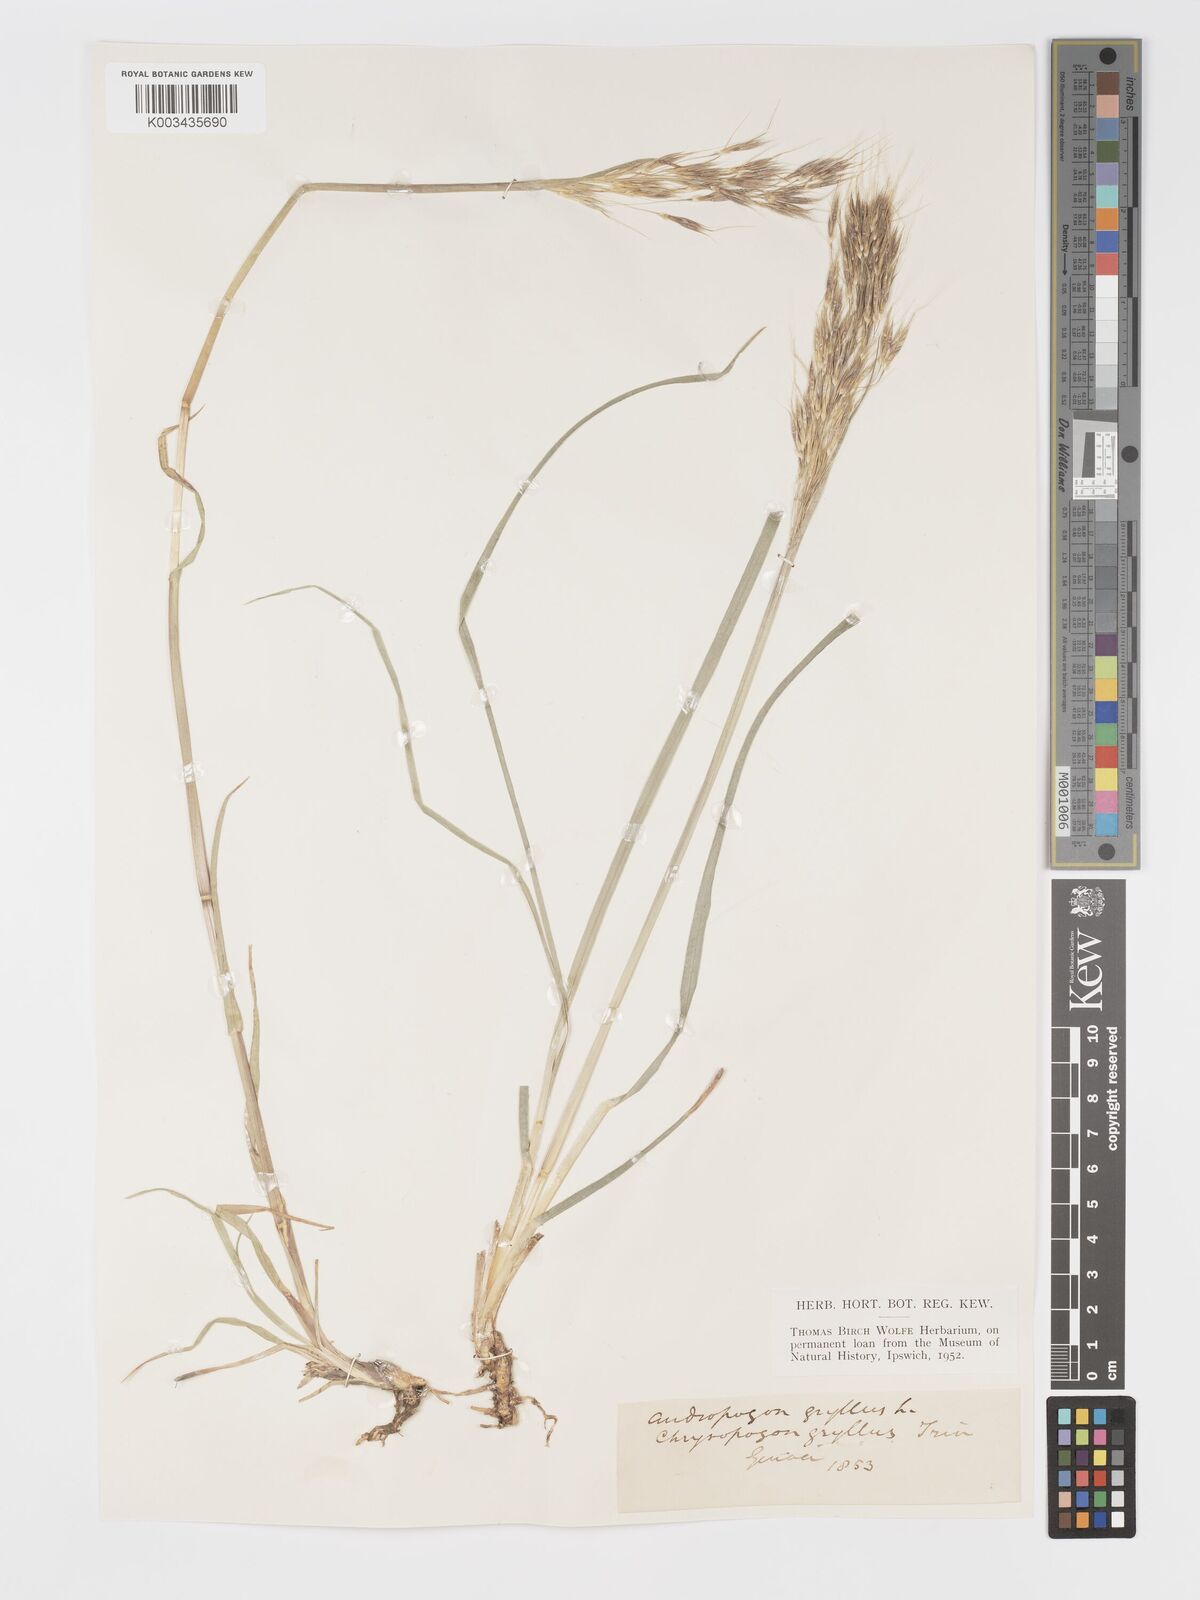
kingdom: Plantae
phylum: Tracheophyta
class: Liliopsida
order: Poales
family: Poaceae
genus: Chrysopogon
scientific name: Chrysopogon gryllus
